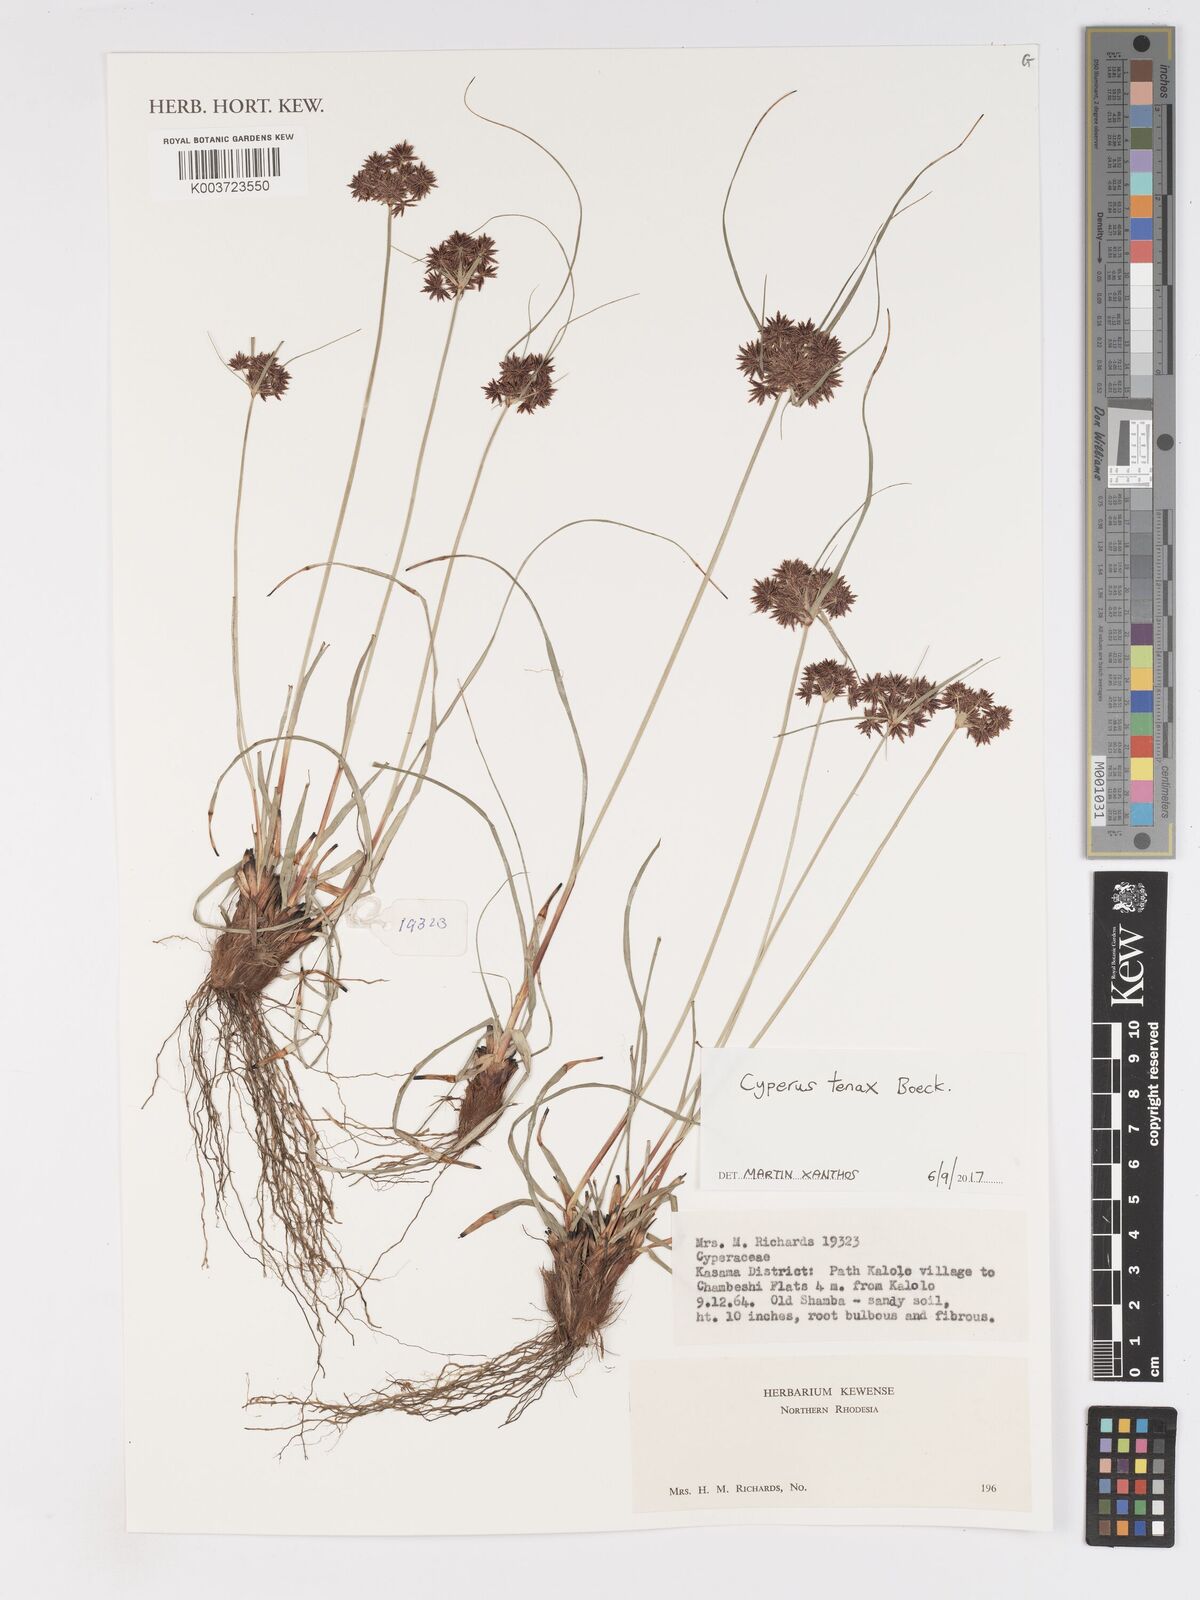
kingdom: Plantae
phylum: Tracheophyta
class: Liliopsida
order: Poales
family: Cyperaceae
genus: Cyperus
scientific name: Cyperus tenax
